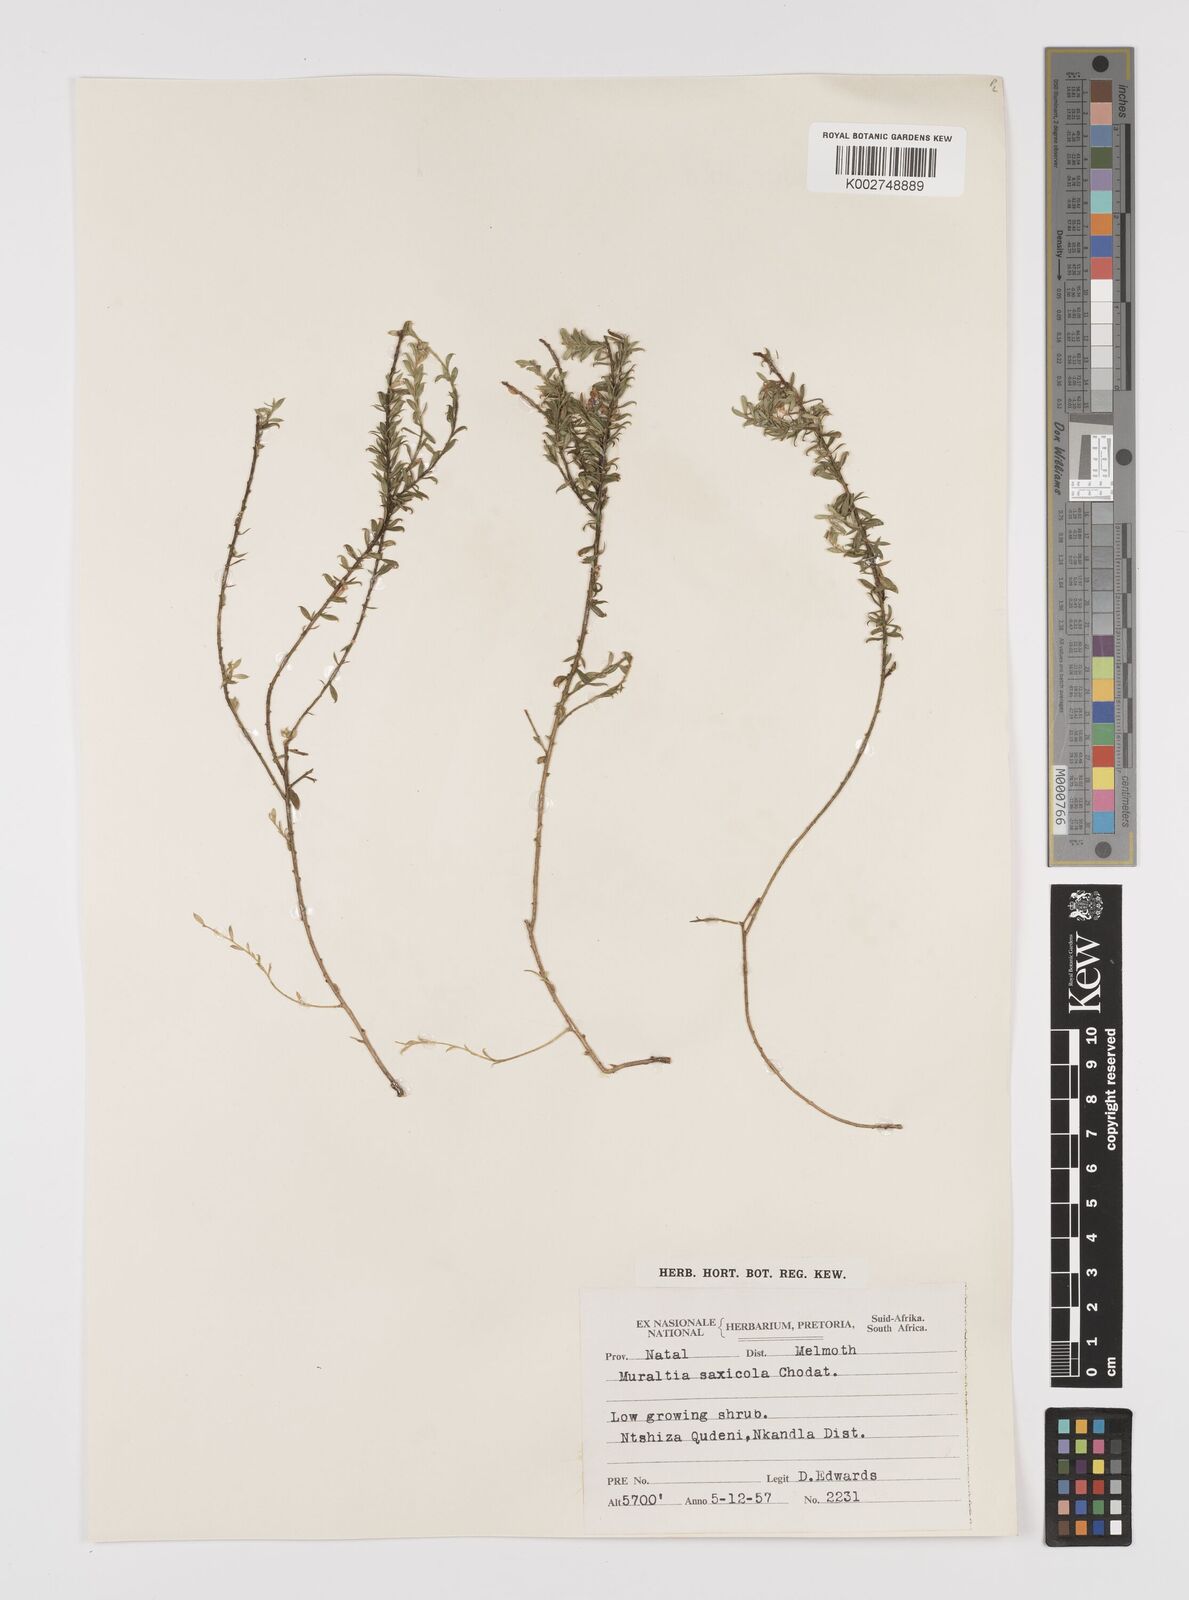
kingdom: Plantae
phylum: Tracheophyta
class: Magnoliopsida
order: Fabales
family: Polygalaceae
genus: Muraltia
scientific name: Muraltia saxicola
